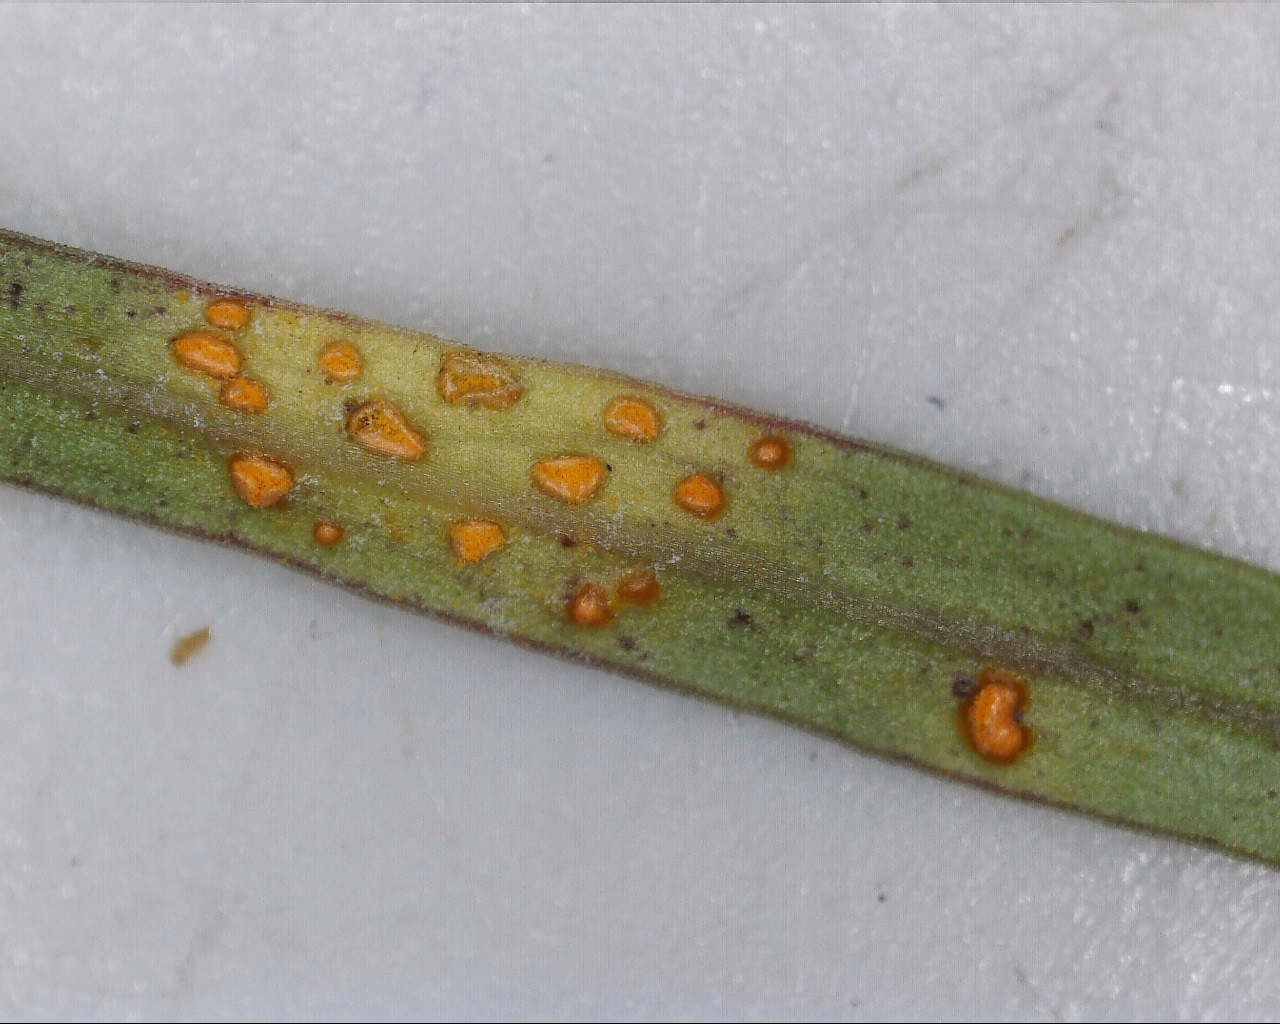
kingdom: Fungi
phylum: Basidiomycota
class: Pucciniomycetes
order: Pucciniales
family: Coleosporiaceae
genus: Coleosporium
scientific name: Coleosporium tussilaginis
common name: almindelig fyrrenålerust
